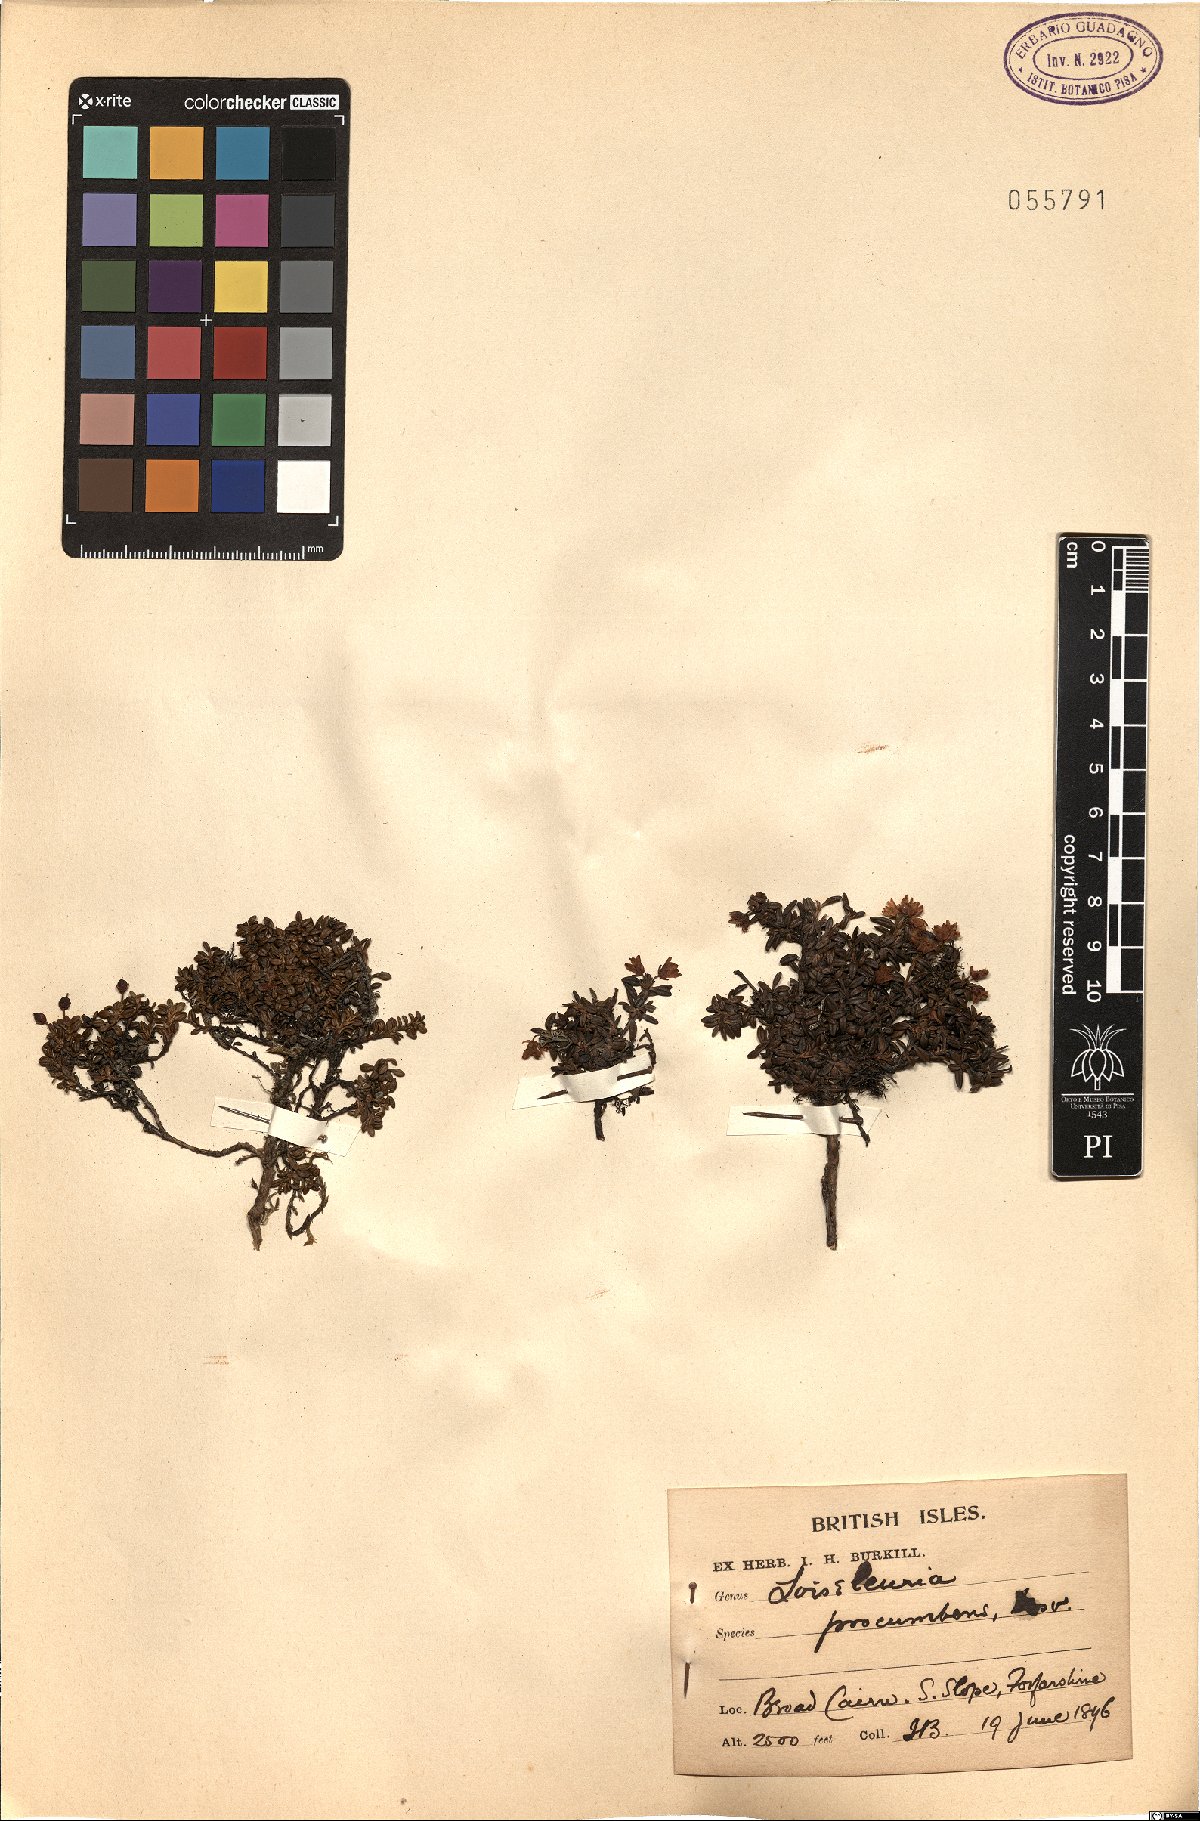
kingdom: Plantae
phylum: Tracheophyta
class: Magnoliopsida
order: Ericales
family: Ericaceae
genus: Kalmia
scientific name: Kalmia procumbens
